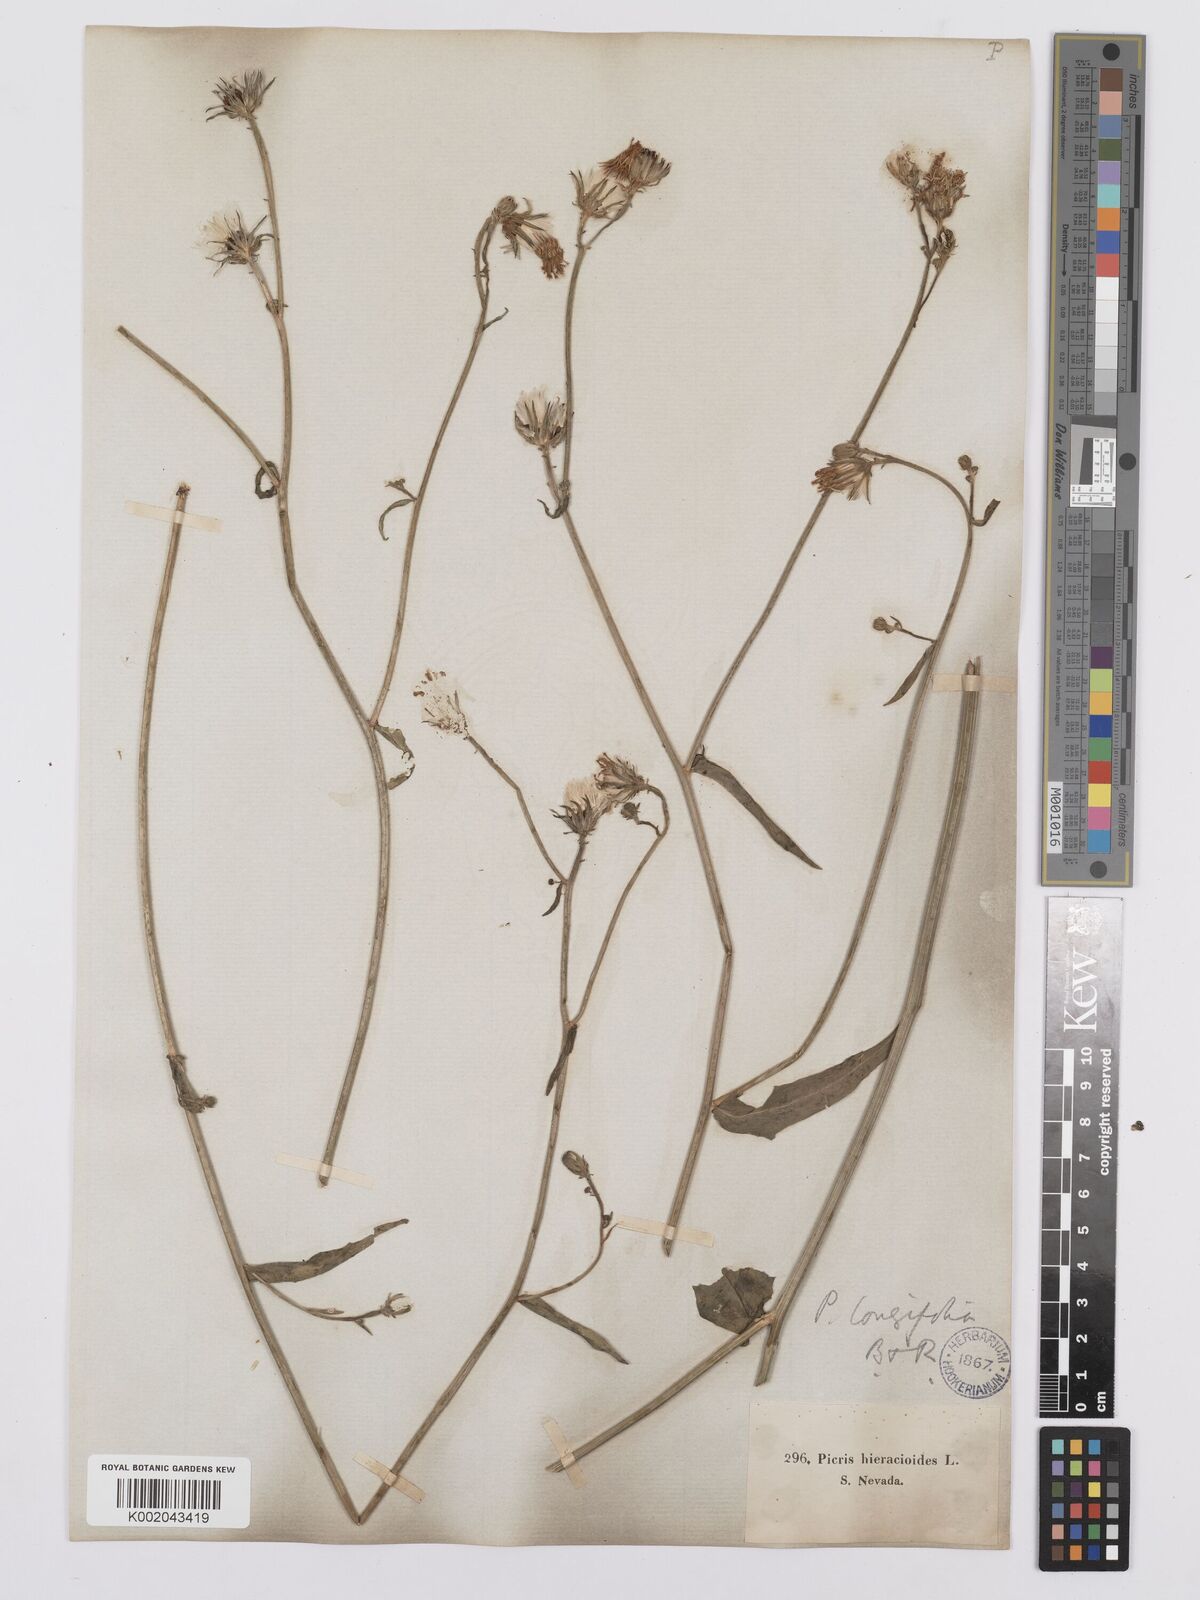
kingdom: Plantae
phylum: Tracheophyta
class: Magnoliopsida
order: Asterales
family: Asteraceae
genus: Picris
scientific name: Picris hieracioides
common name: Hawkweed oxtongue
